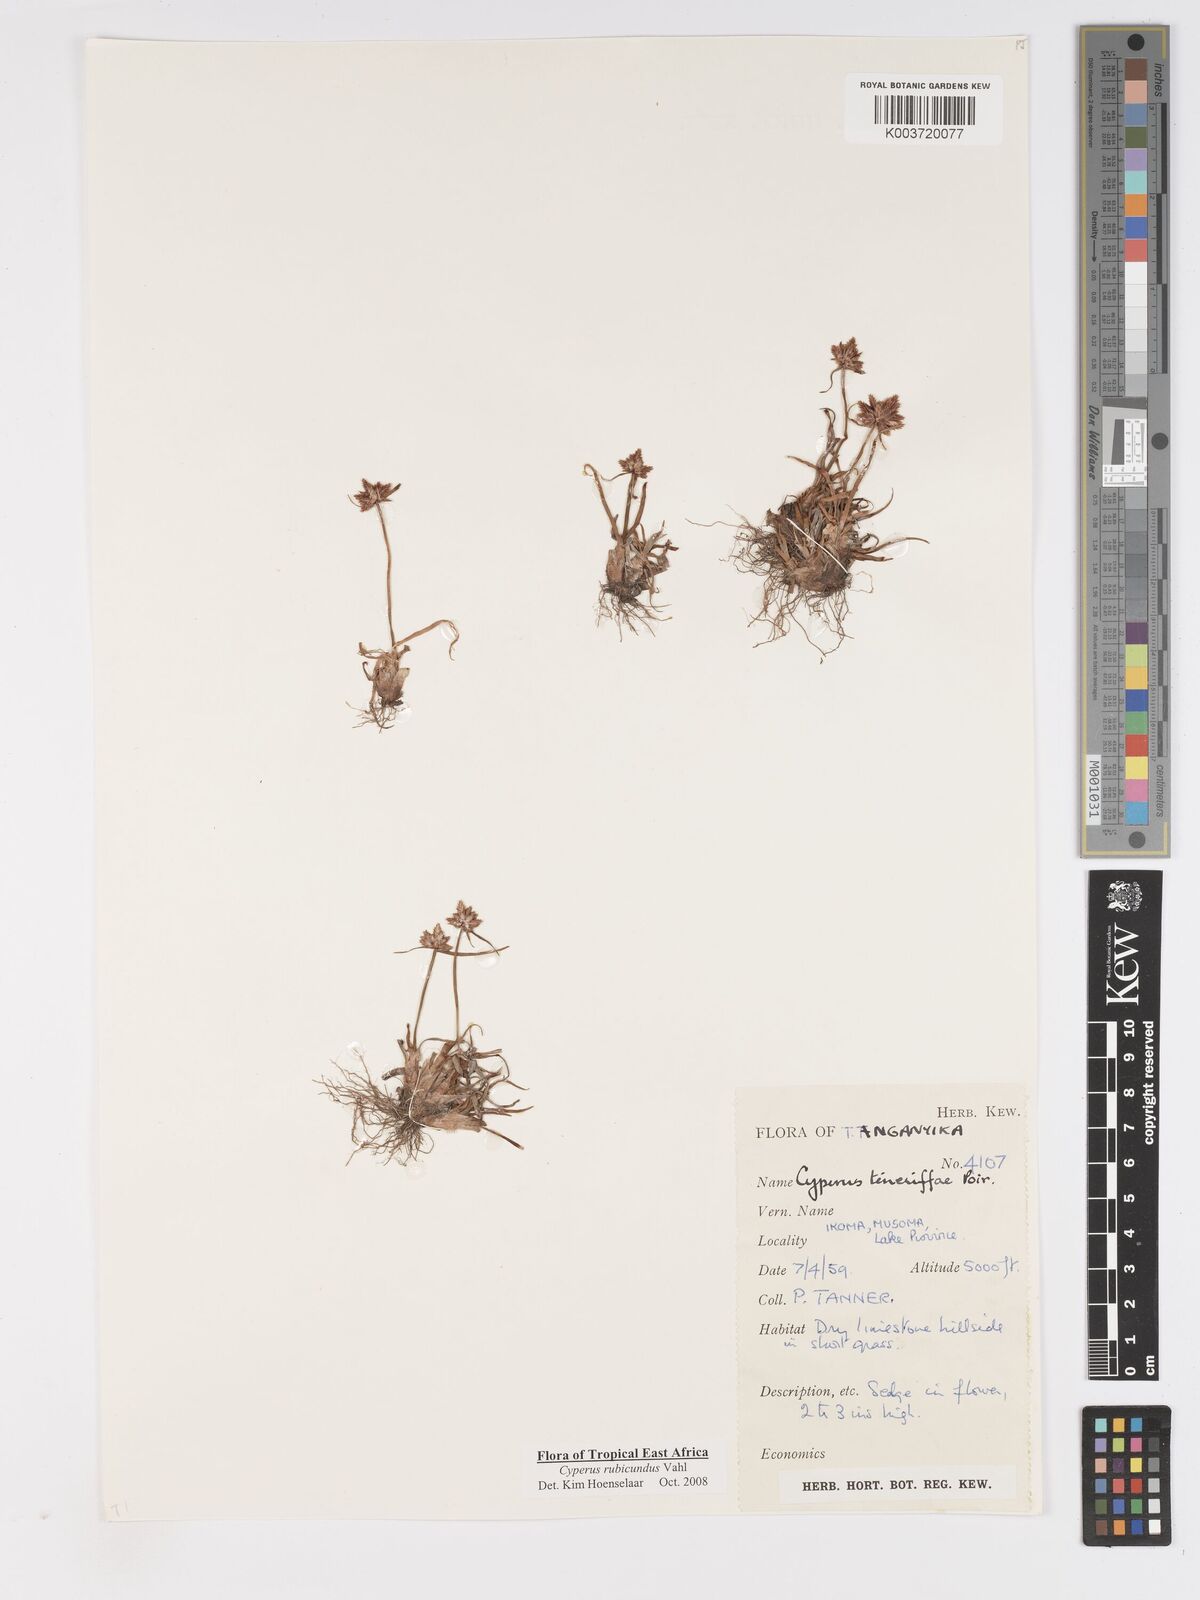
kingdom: Plantae
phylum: Tracheophyta
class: Liliopsida
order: Poales
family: Cyperaceae
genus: Cyperus
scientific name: Cyperus rubicundus
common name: Coco-grass
